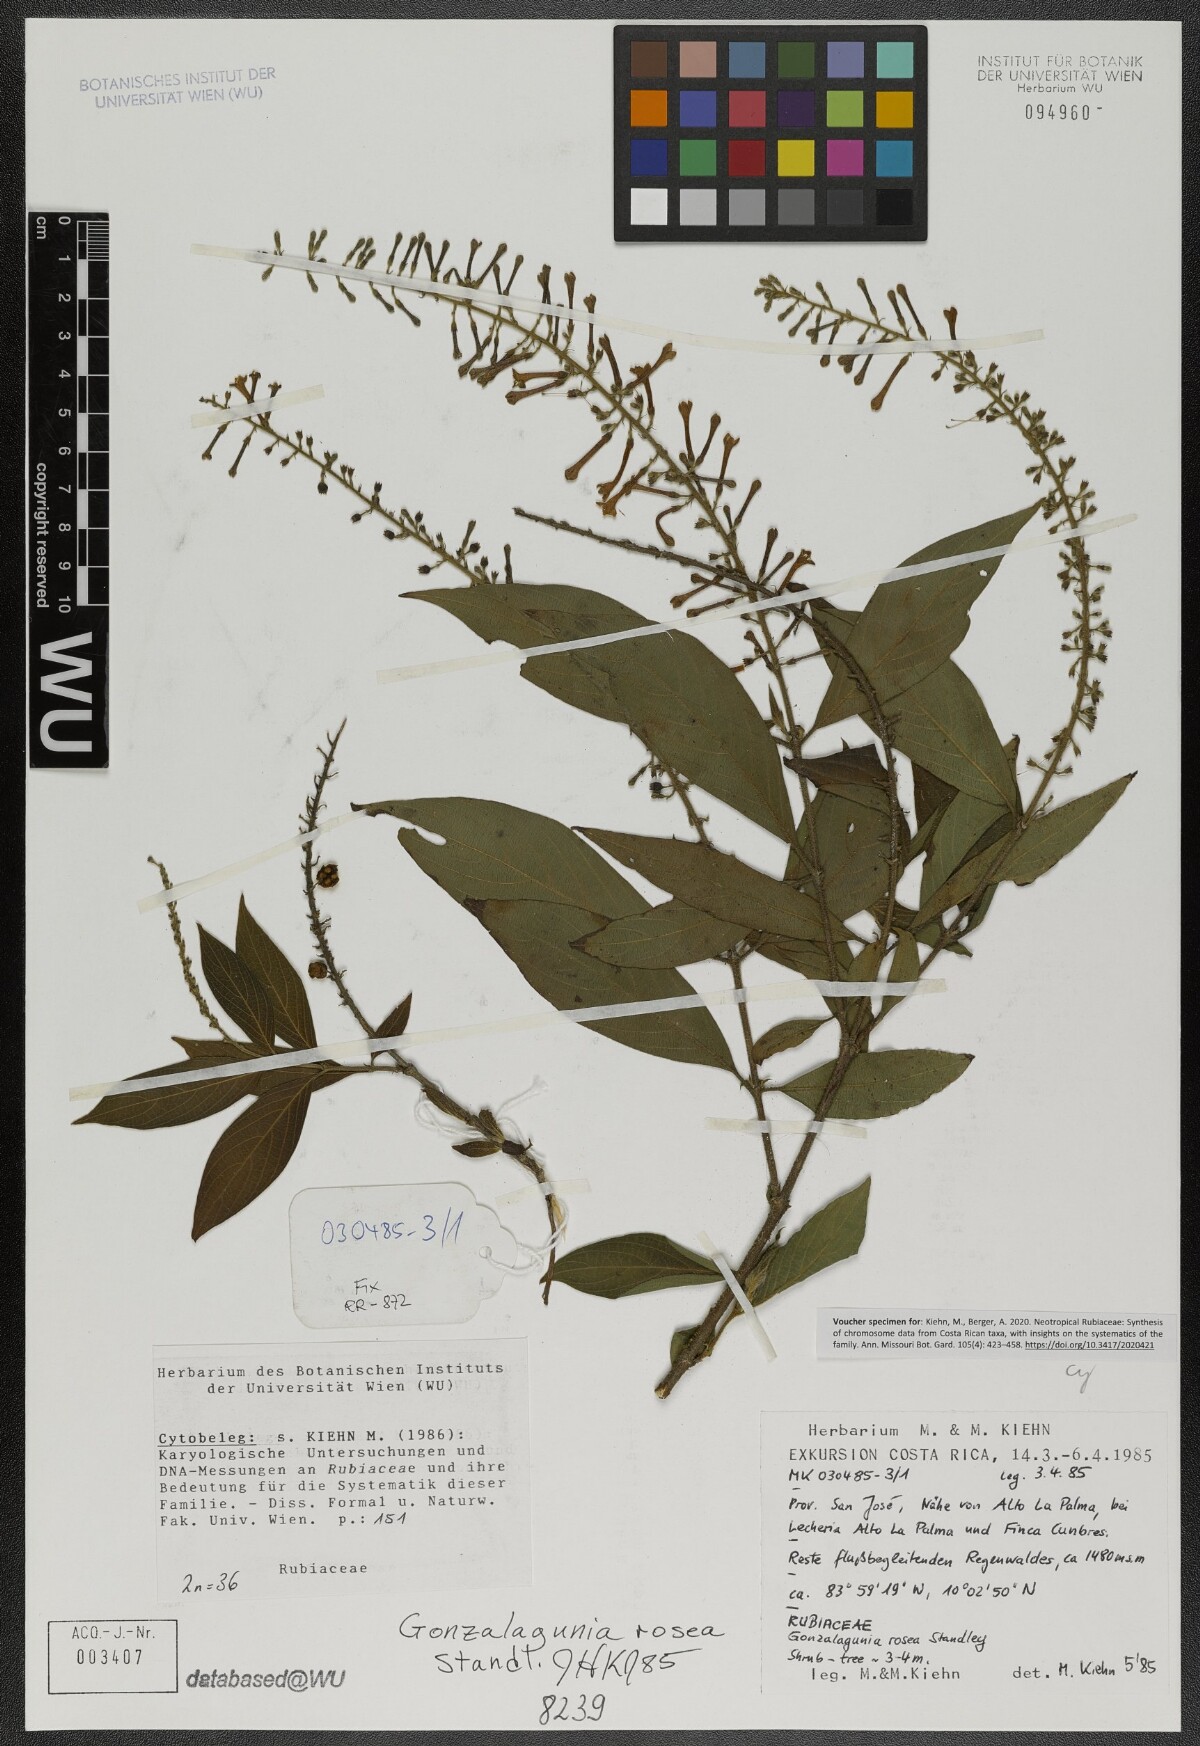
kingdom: Plantae
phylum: Tracheophyta
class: Magnoliopsida
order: Gentianales
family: Rubiaceae
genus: Gonzalagunia
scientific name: Gonzalagunia rosea
